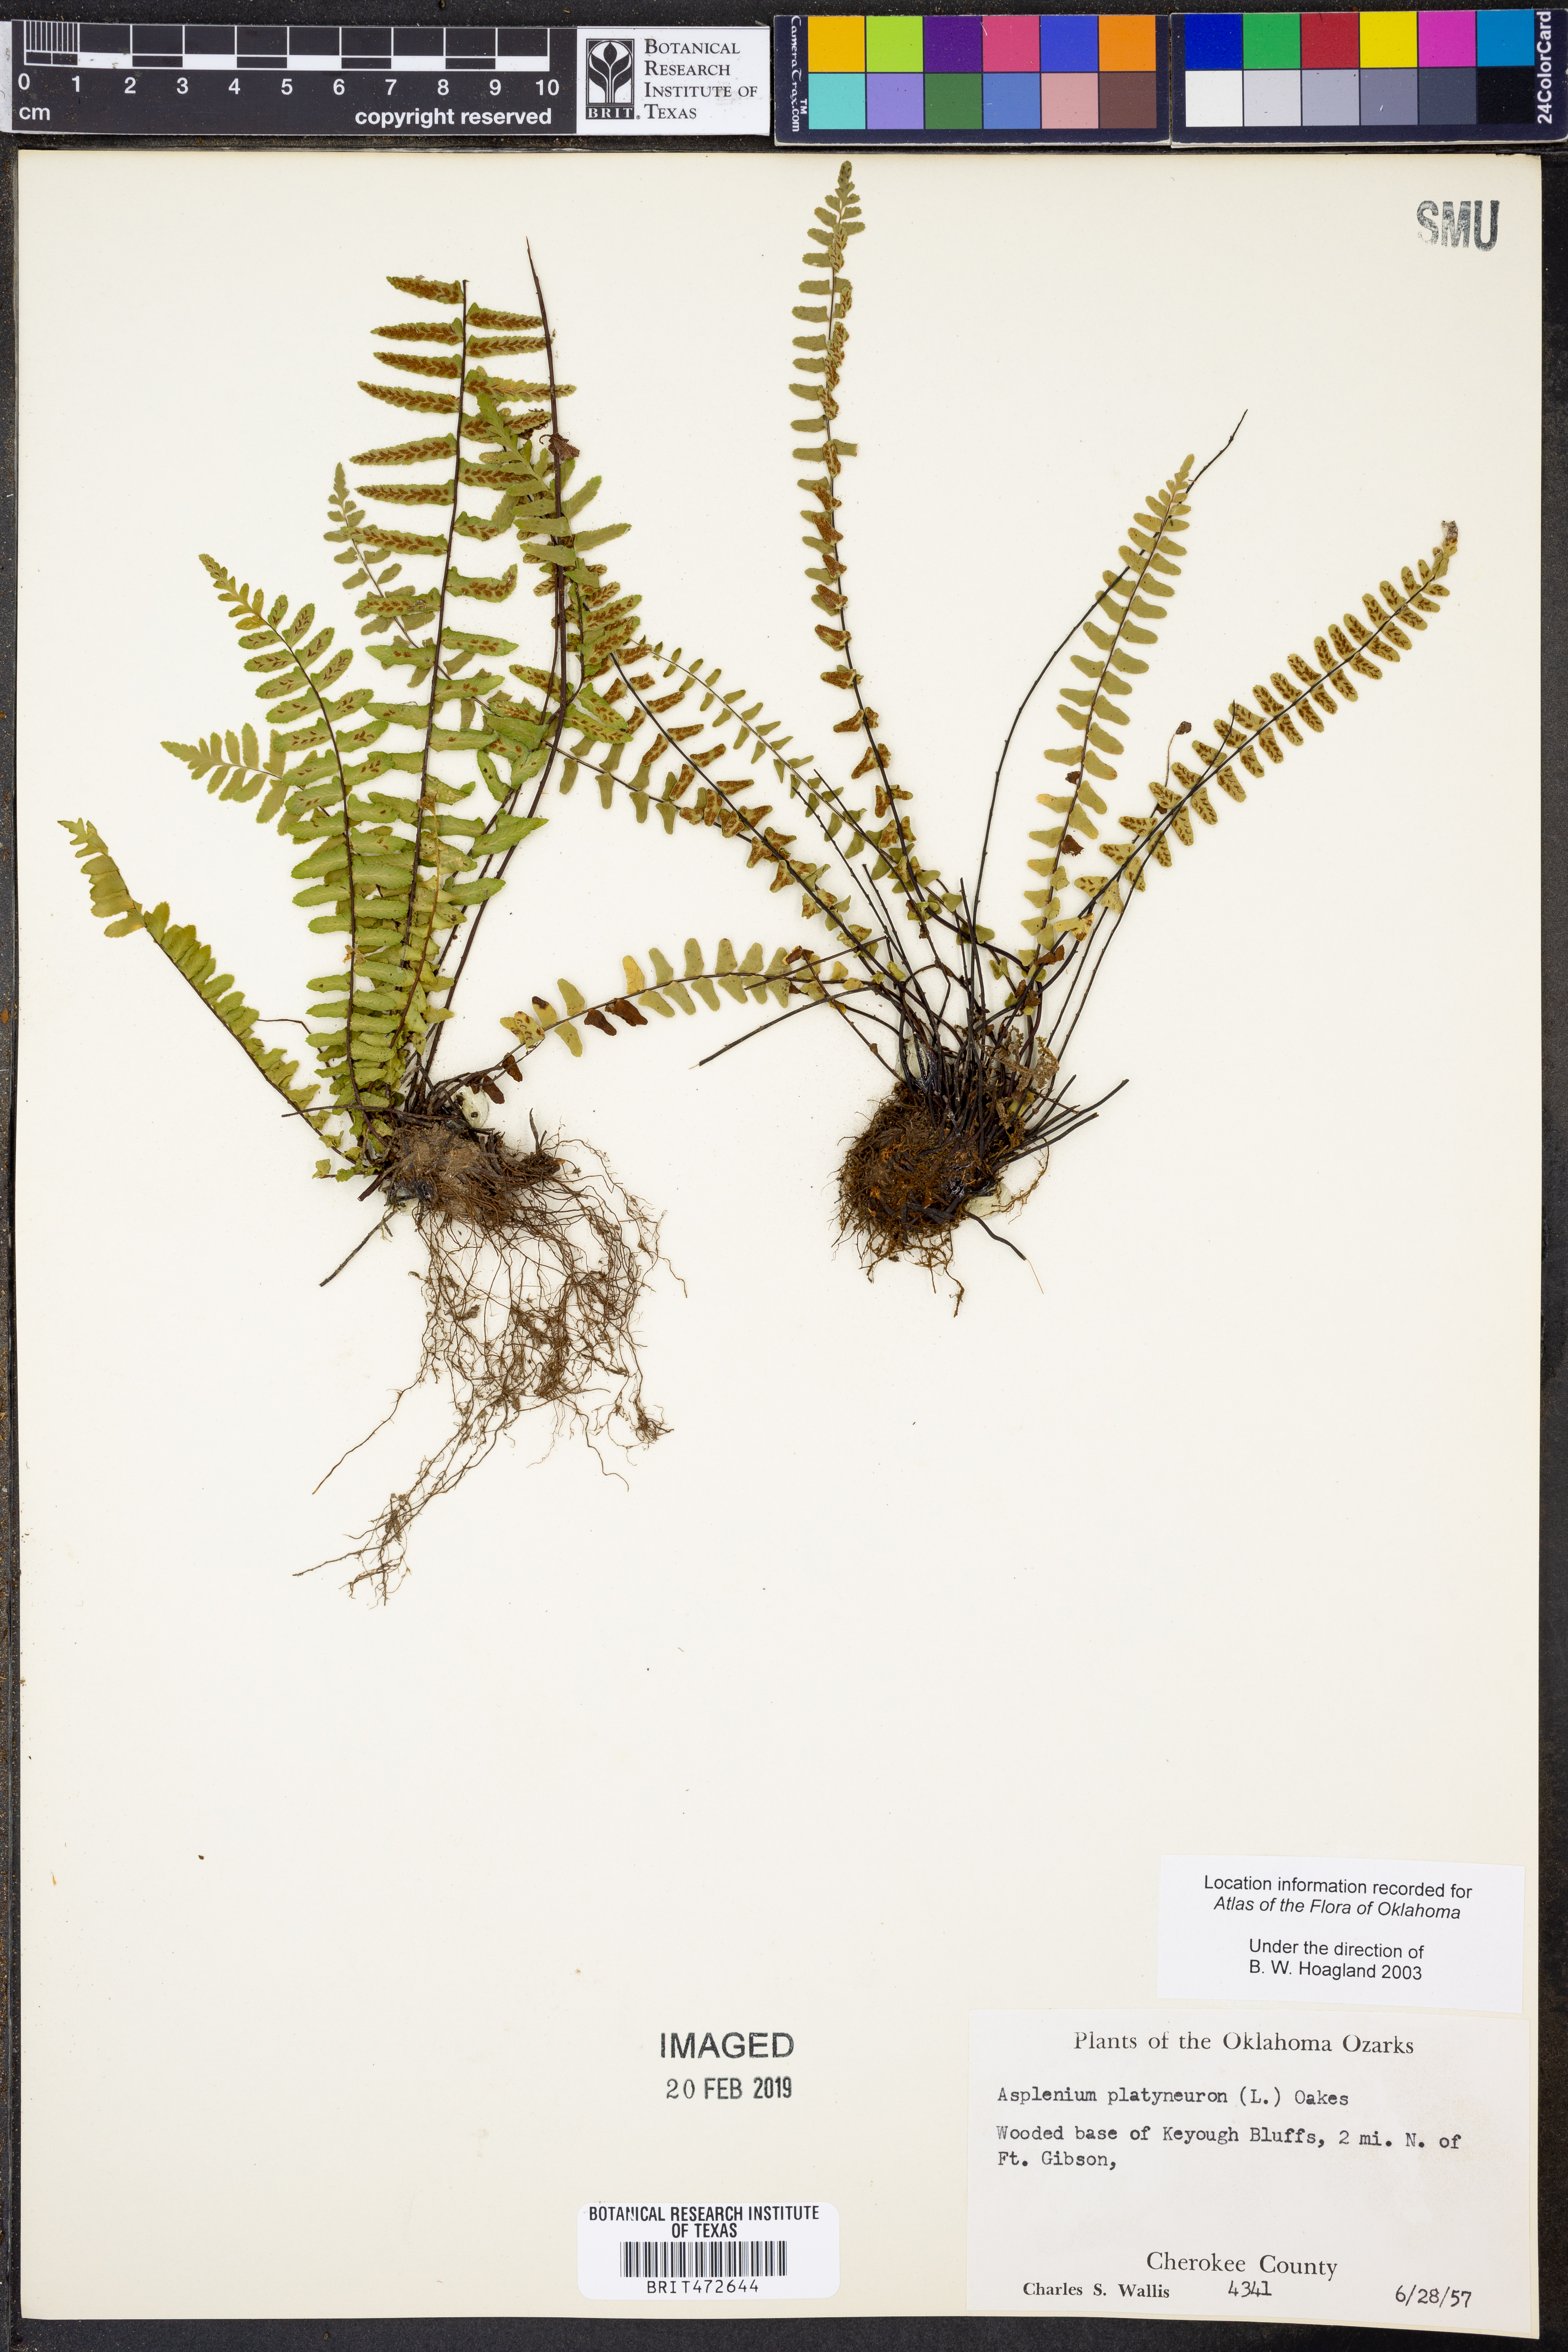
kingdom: Plantae
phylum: Tracheophyta
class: Polypodiopsida
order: Polypodiales
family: Aspleniaceae
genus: Asplenium
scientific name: Asplenium platyneuron
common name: Ebony spleenwort
